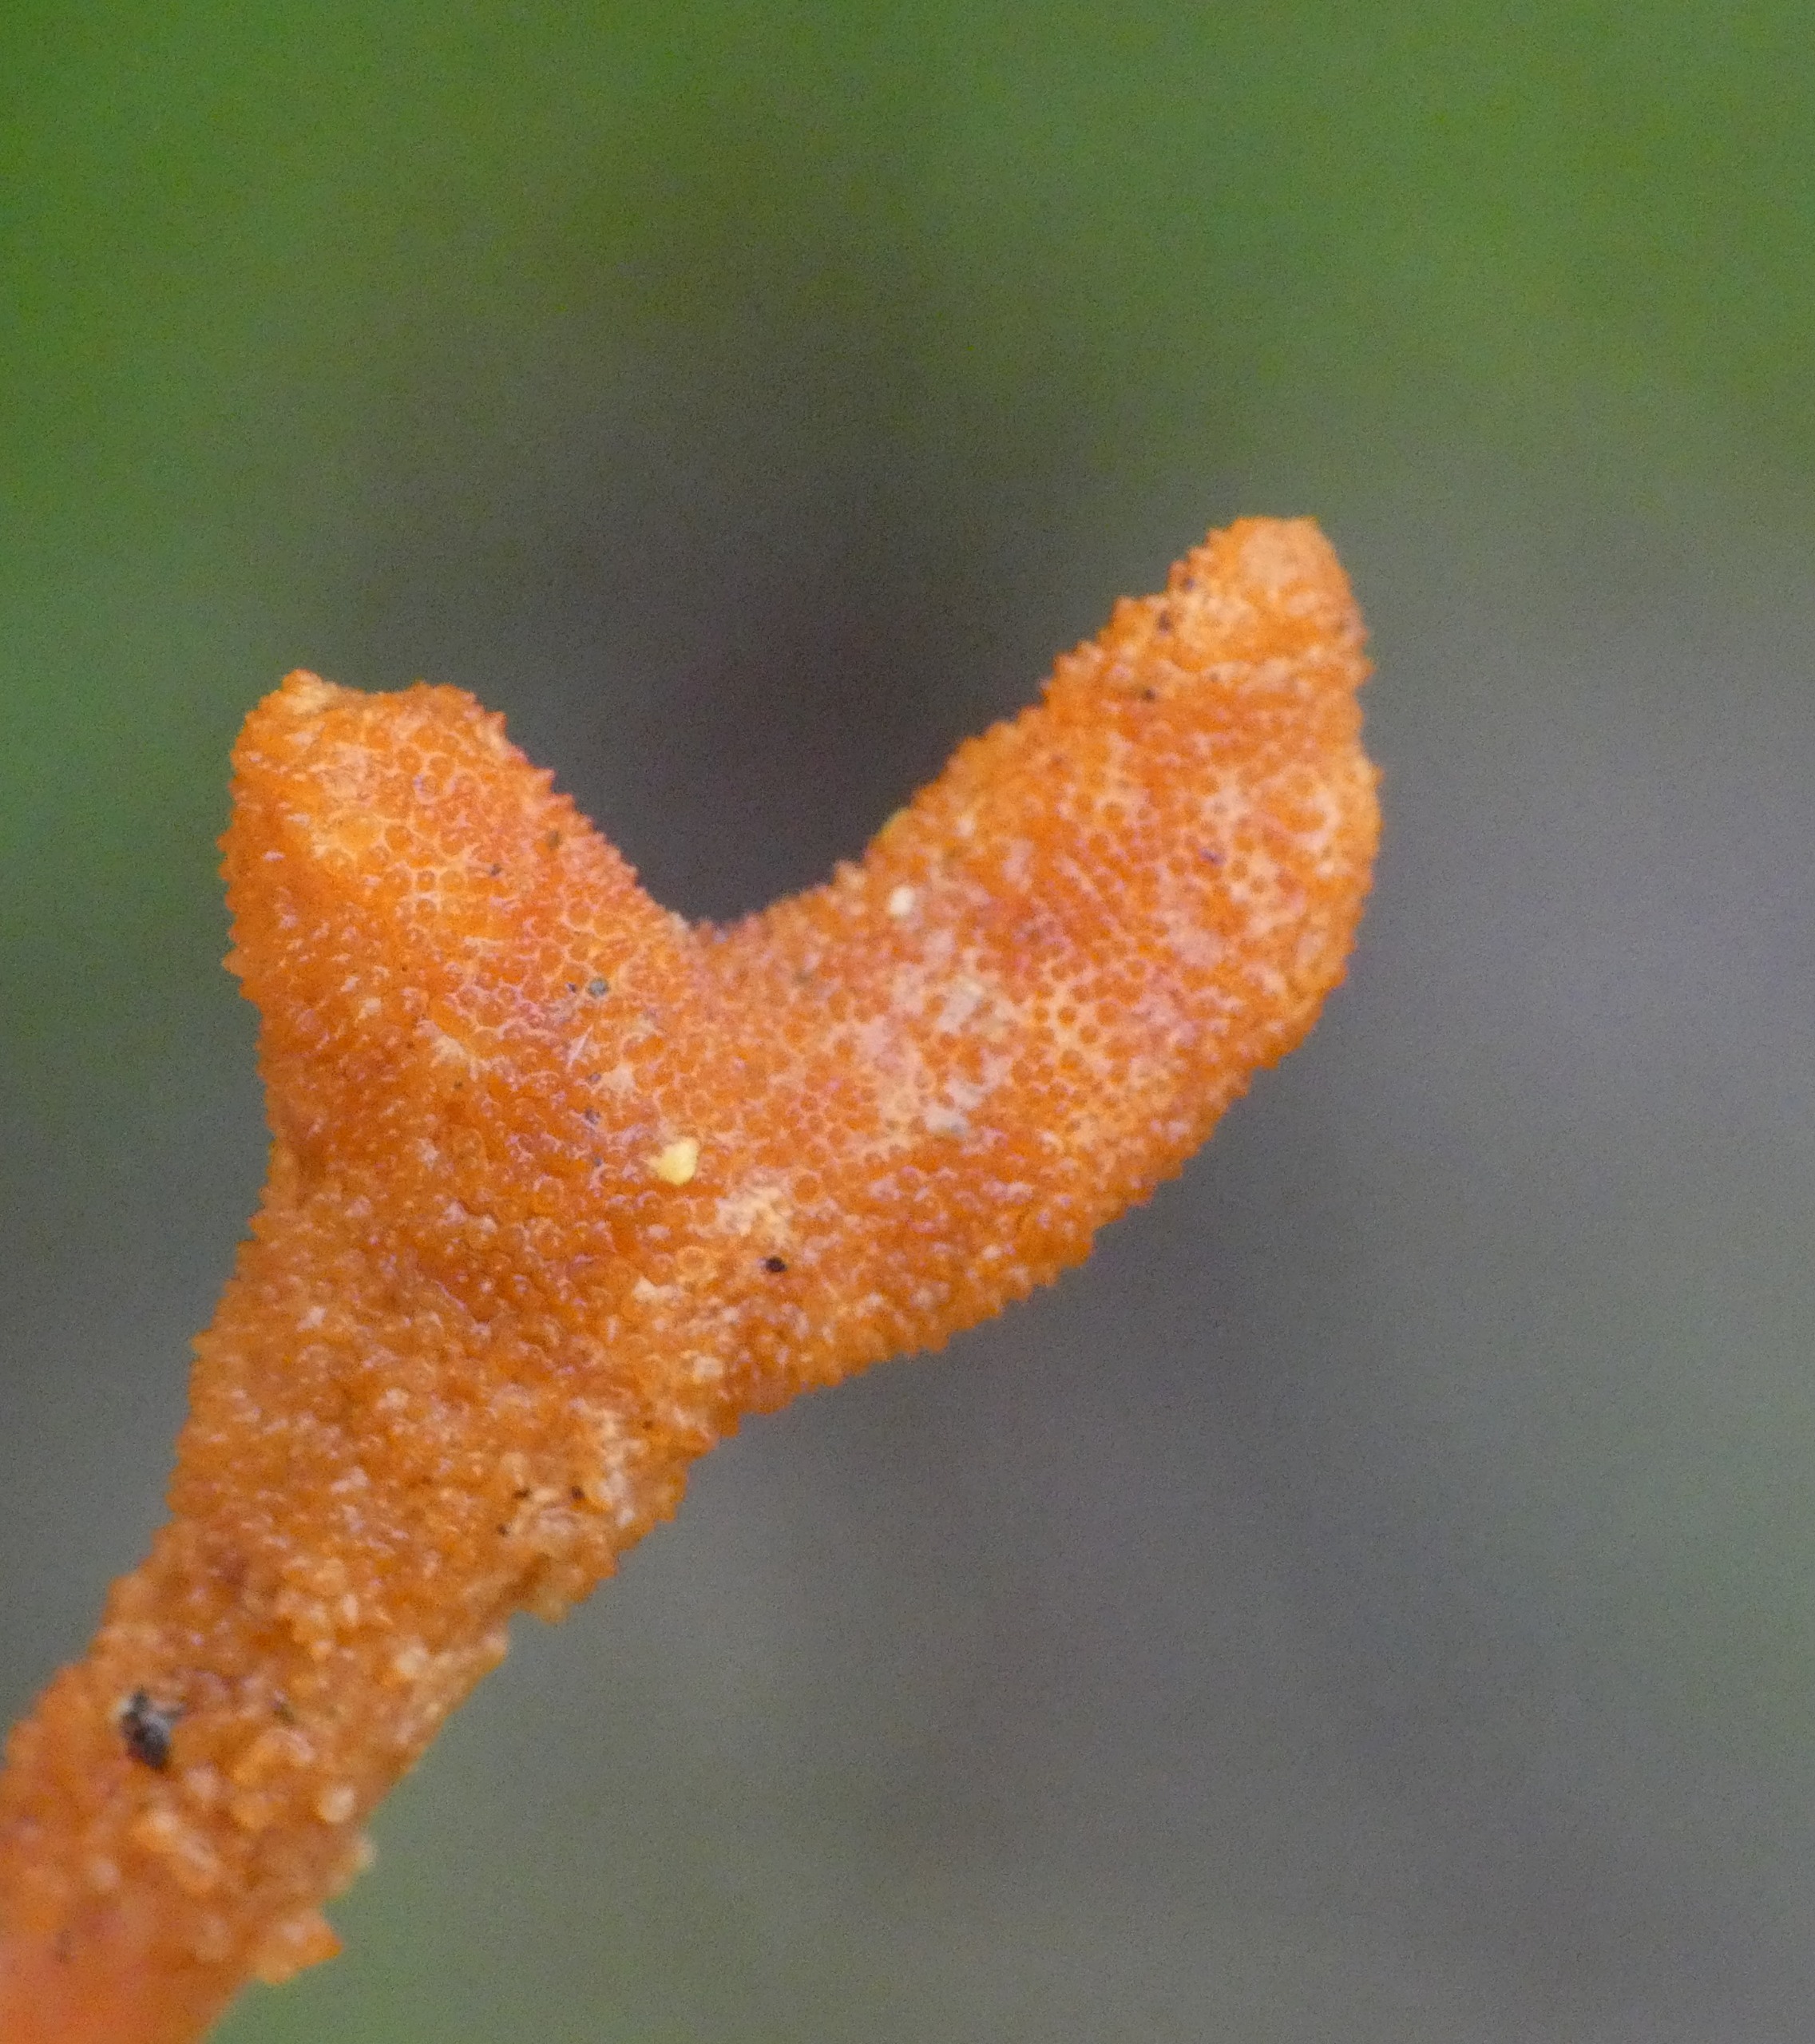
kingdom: Fungi
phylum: Ascomycota
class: Sordariomycetes
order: Hypocreales
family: Cordycipitaceae
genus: Cordyceps
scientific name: Cordyceps militaris
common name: Puppe-snyltekølle
